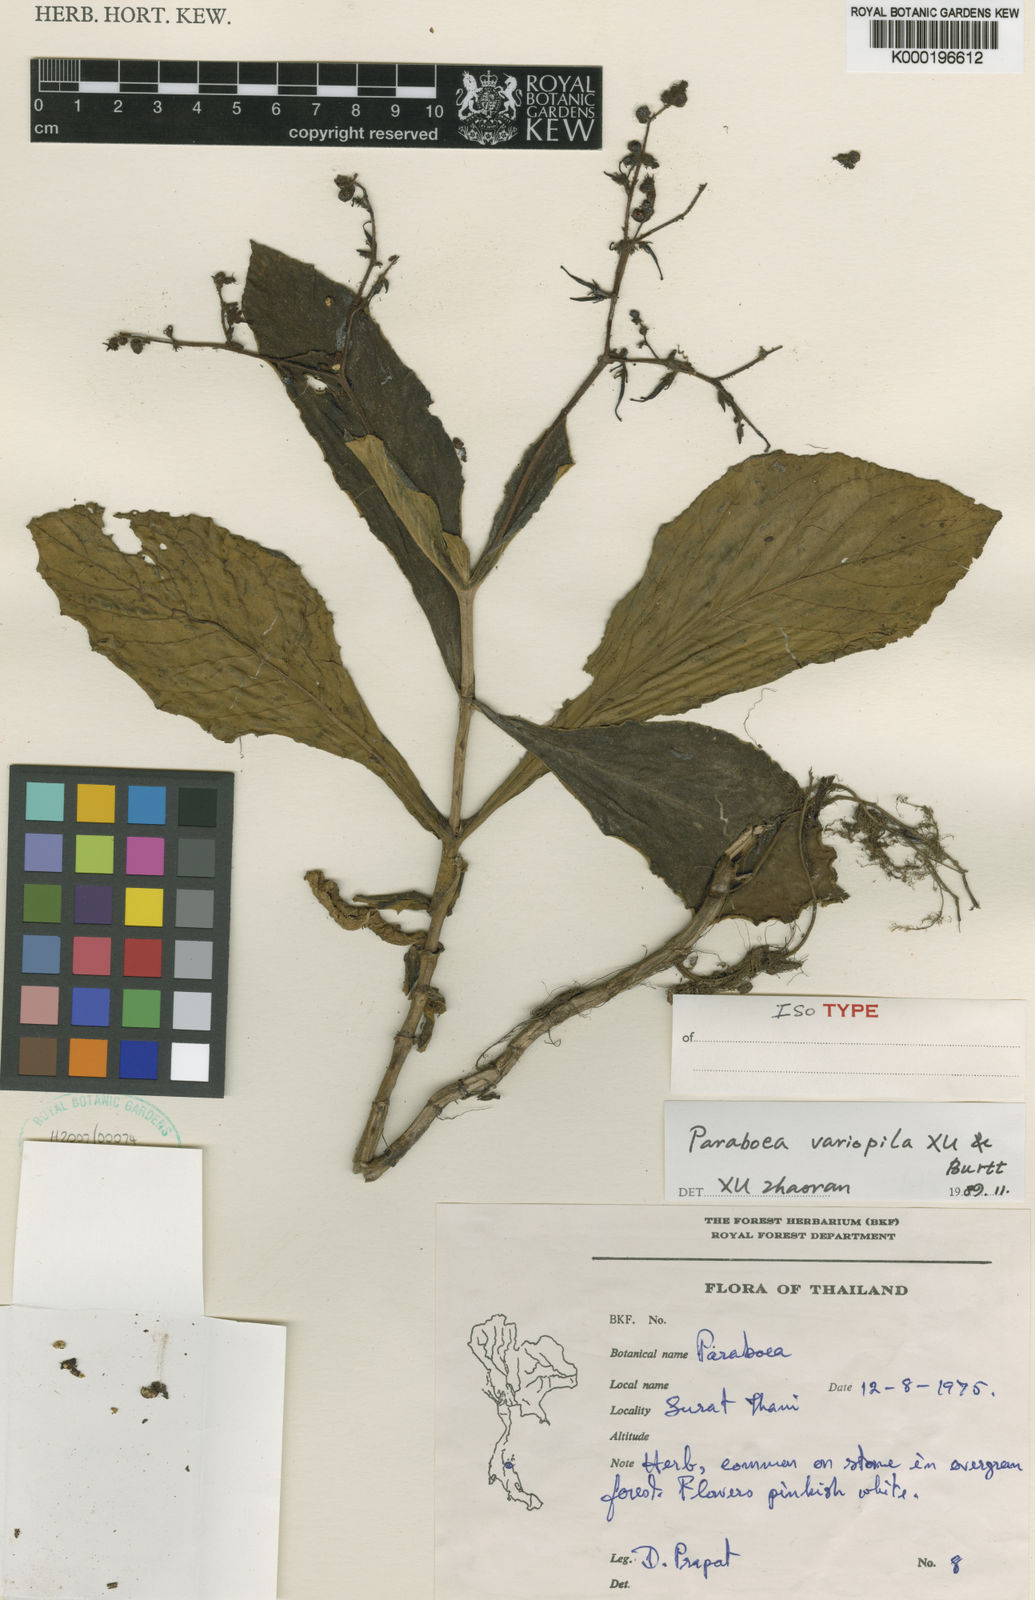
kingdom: Plantae
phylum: Tracheophyta
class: Magnoliopsida
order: Lamiales
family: Gesneriaceae
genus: Paraboea
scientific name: Paraboea variopila
